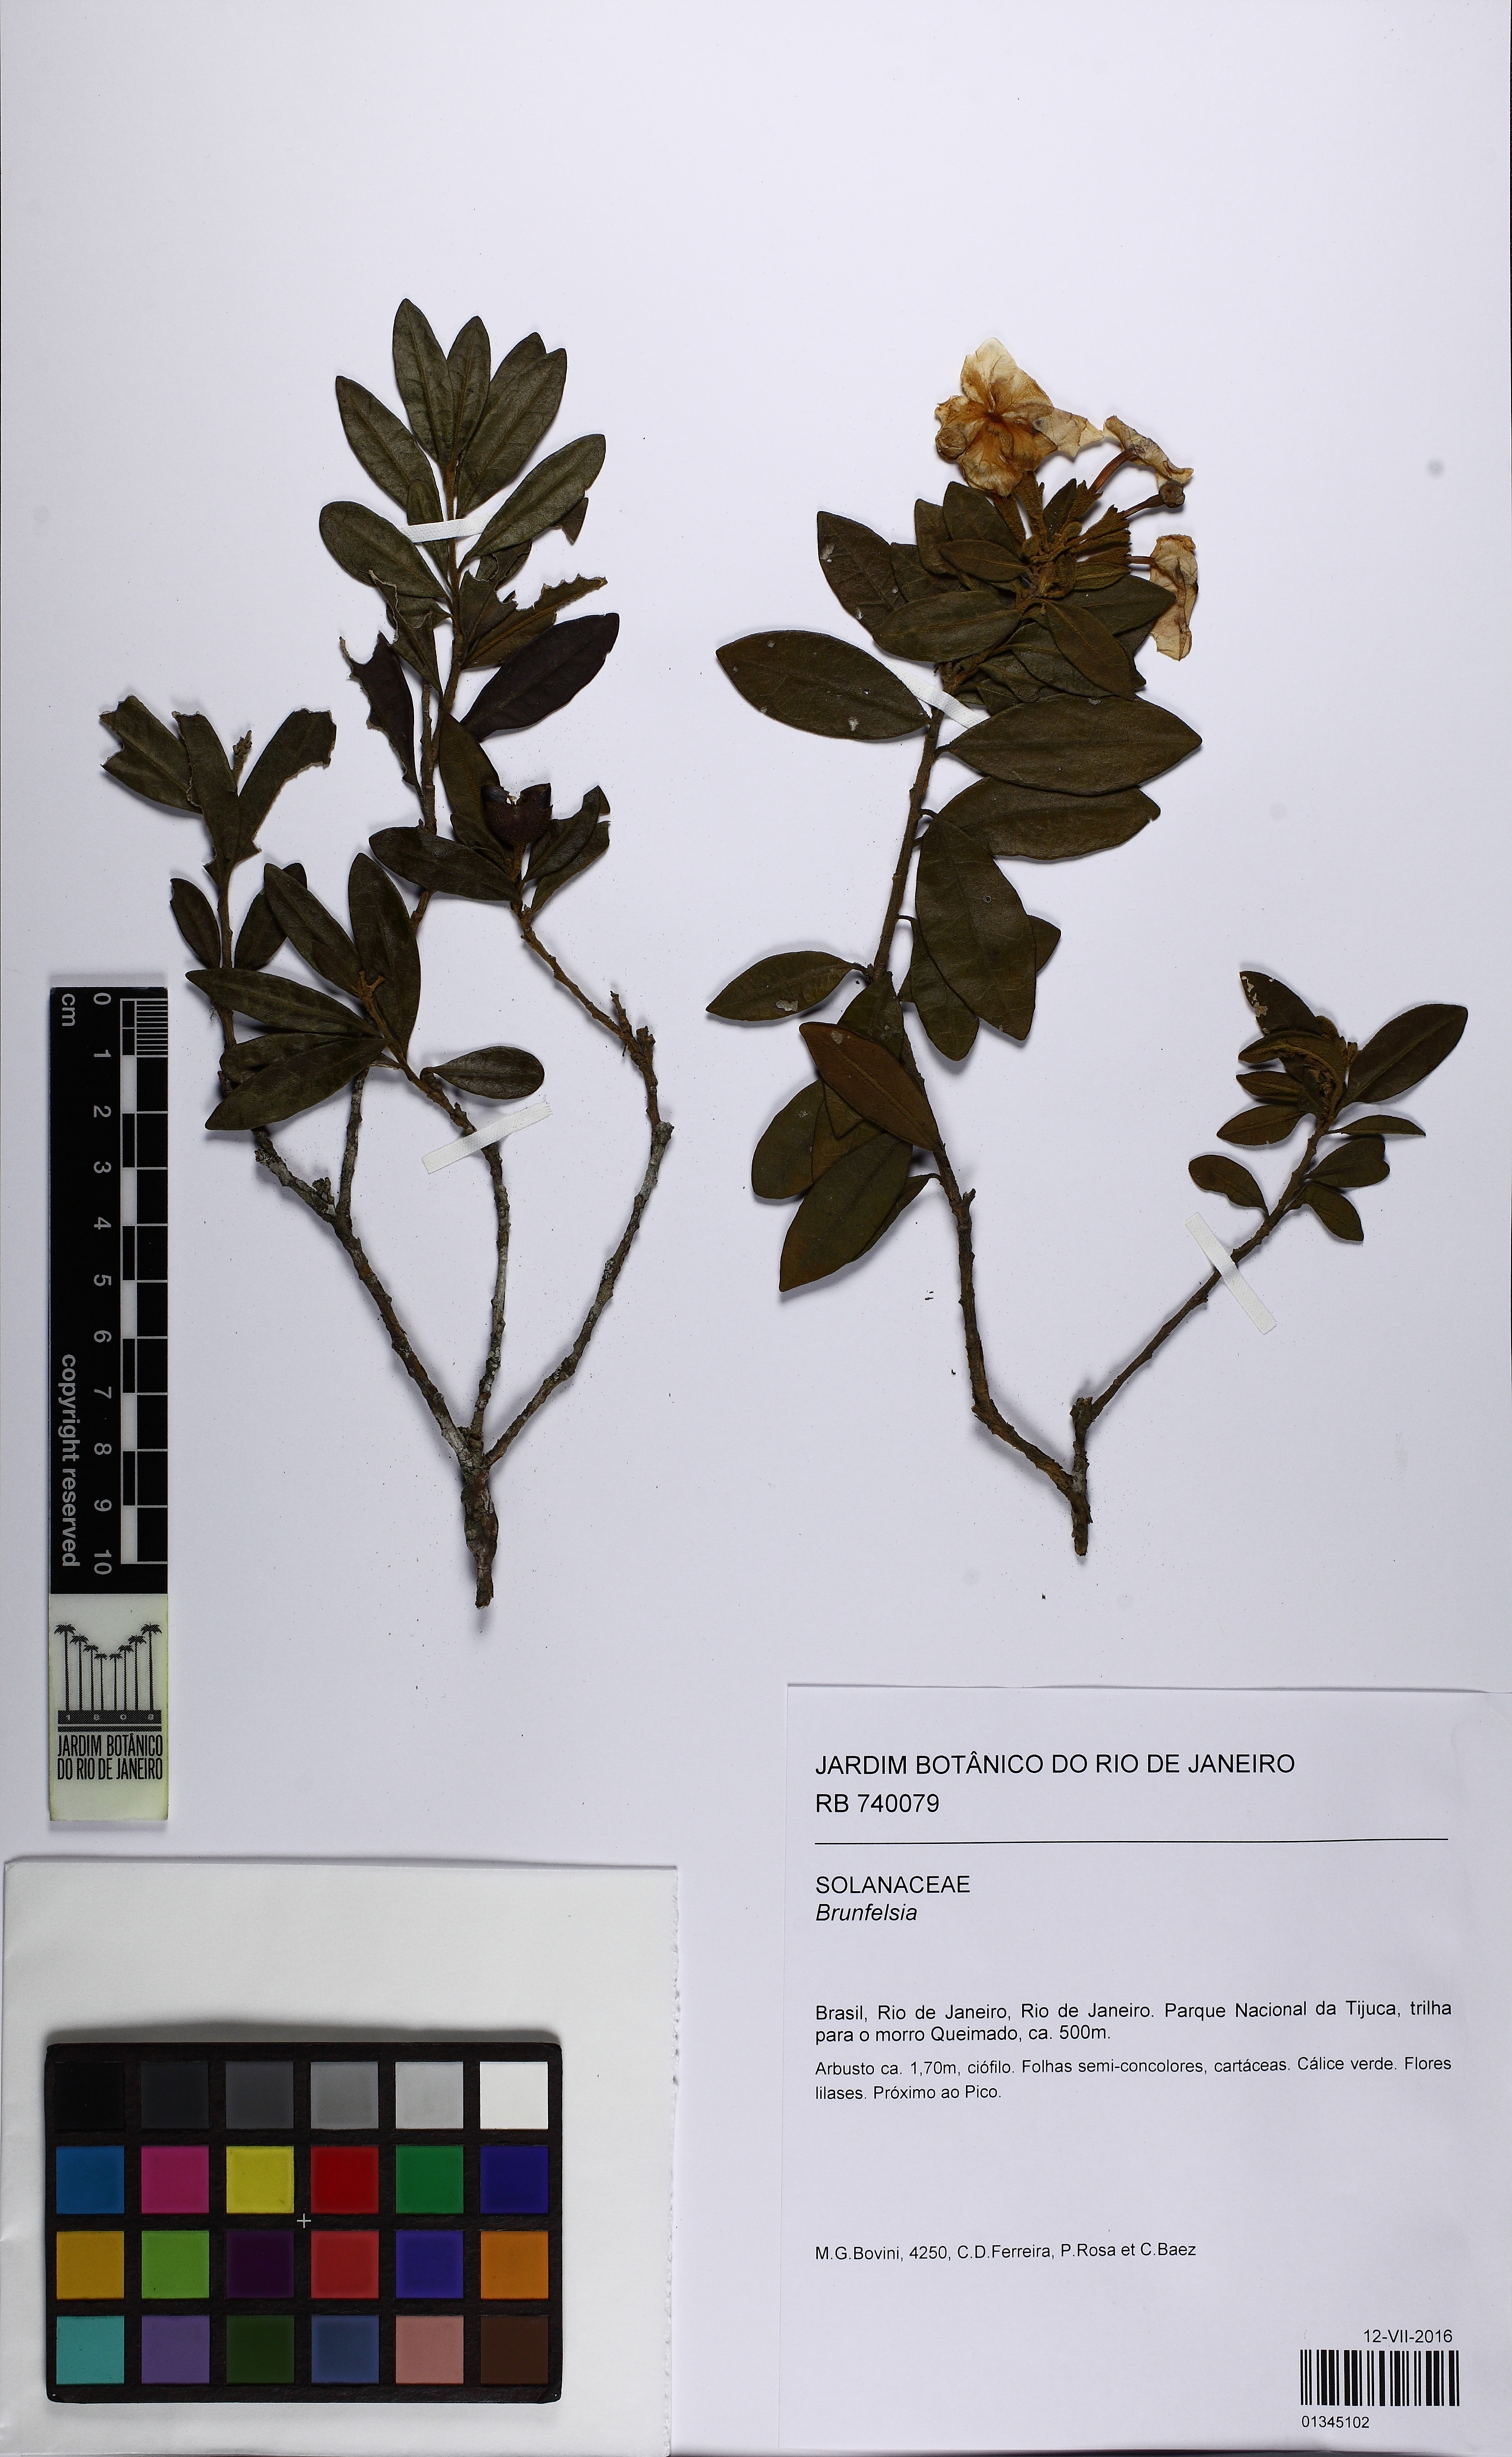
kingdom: Plantae
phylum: Tracheophyta
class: Magnoliopsida
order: Solanales
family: Solanaceae
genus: Brunfelsia
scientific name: Brunfelsia brasiliensis
